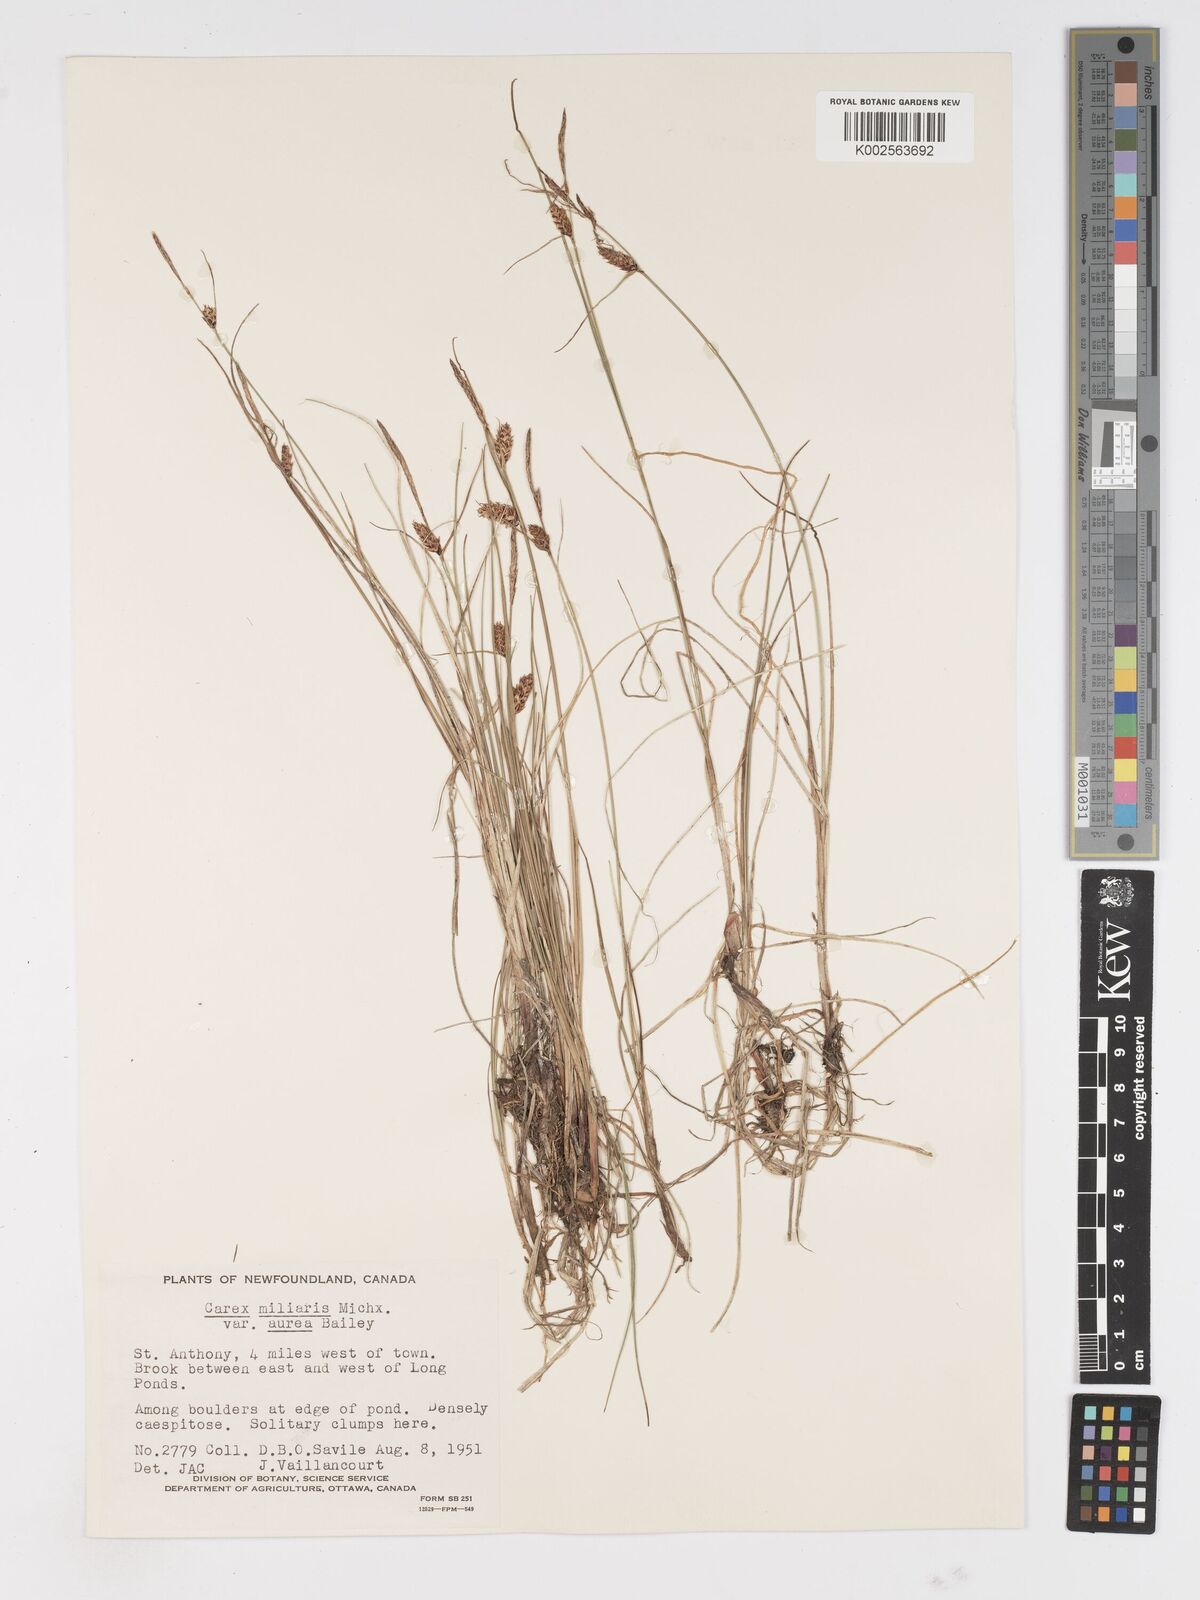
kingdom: Plantae
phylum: Tracheophyta
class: Liliopsida
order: Poales
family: Cyperaceae
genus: Carex
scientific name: Carex mainensis
